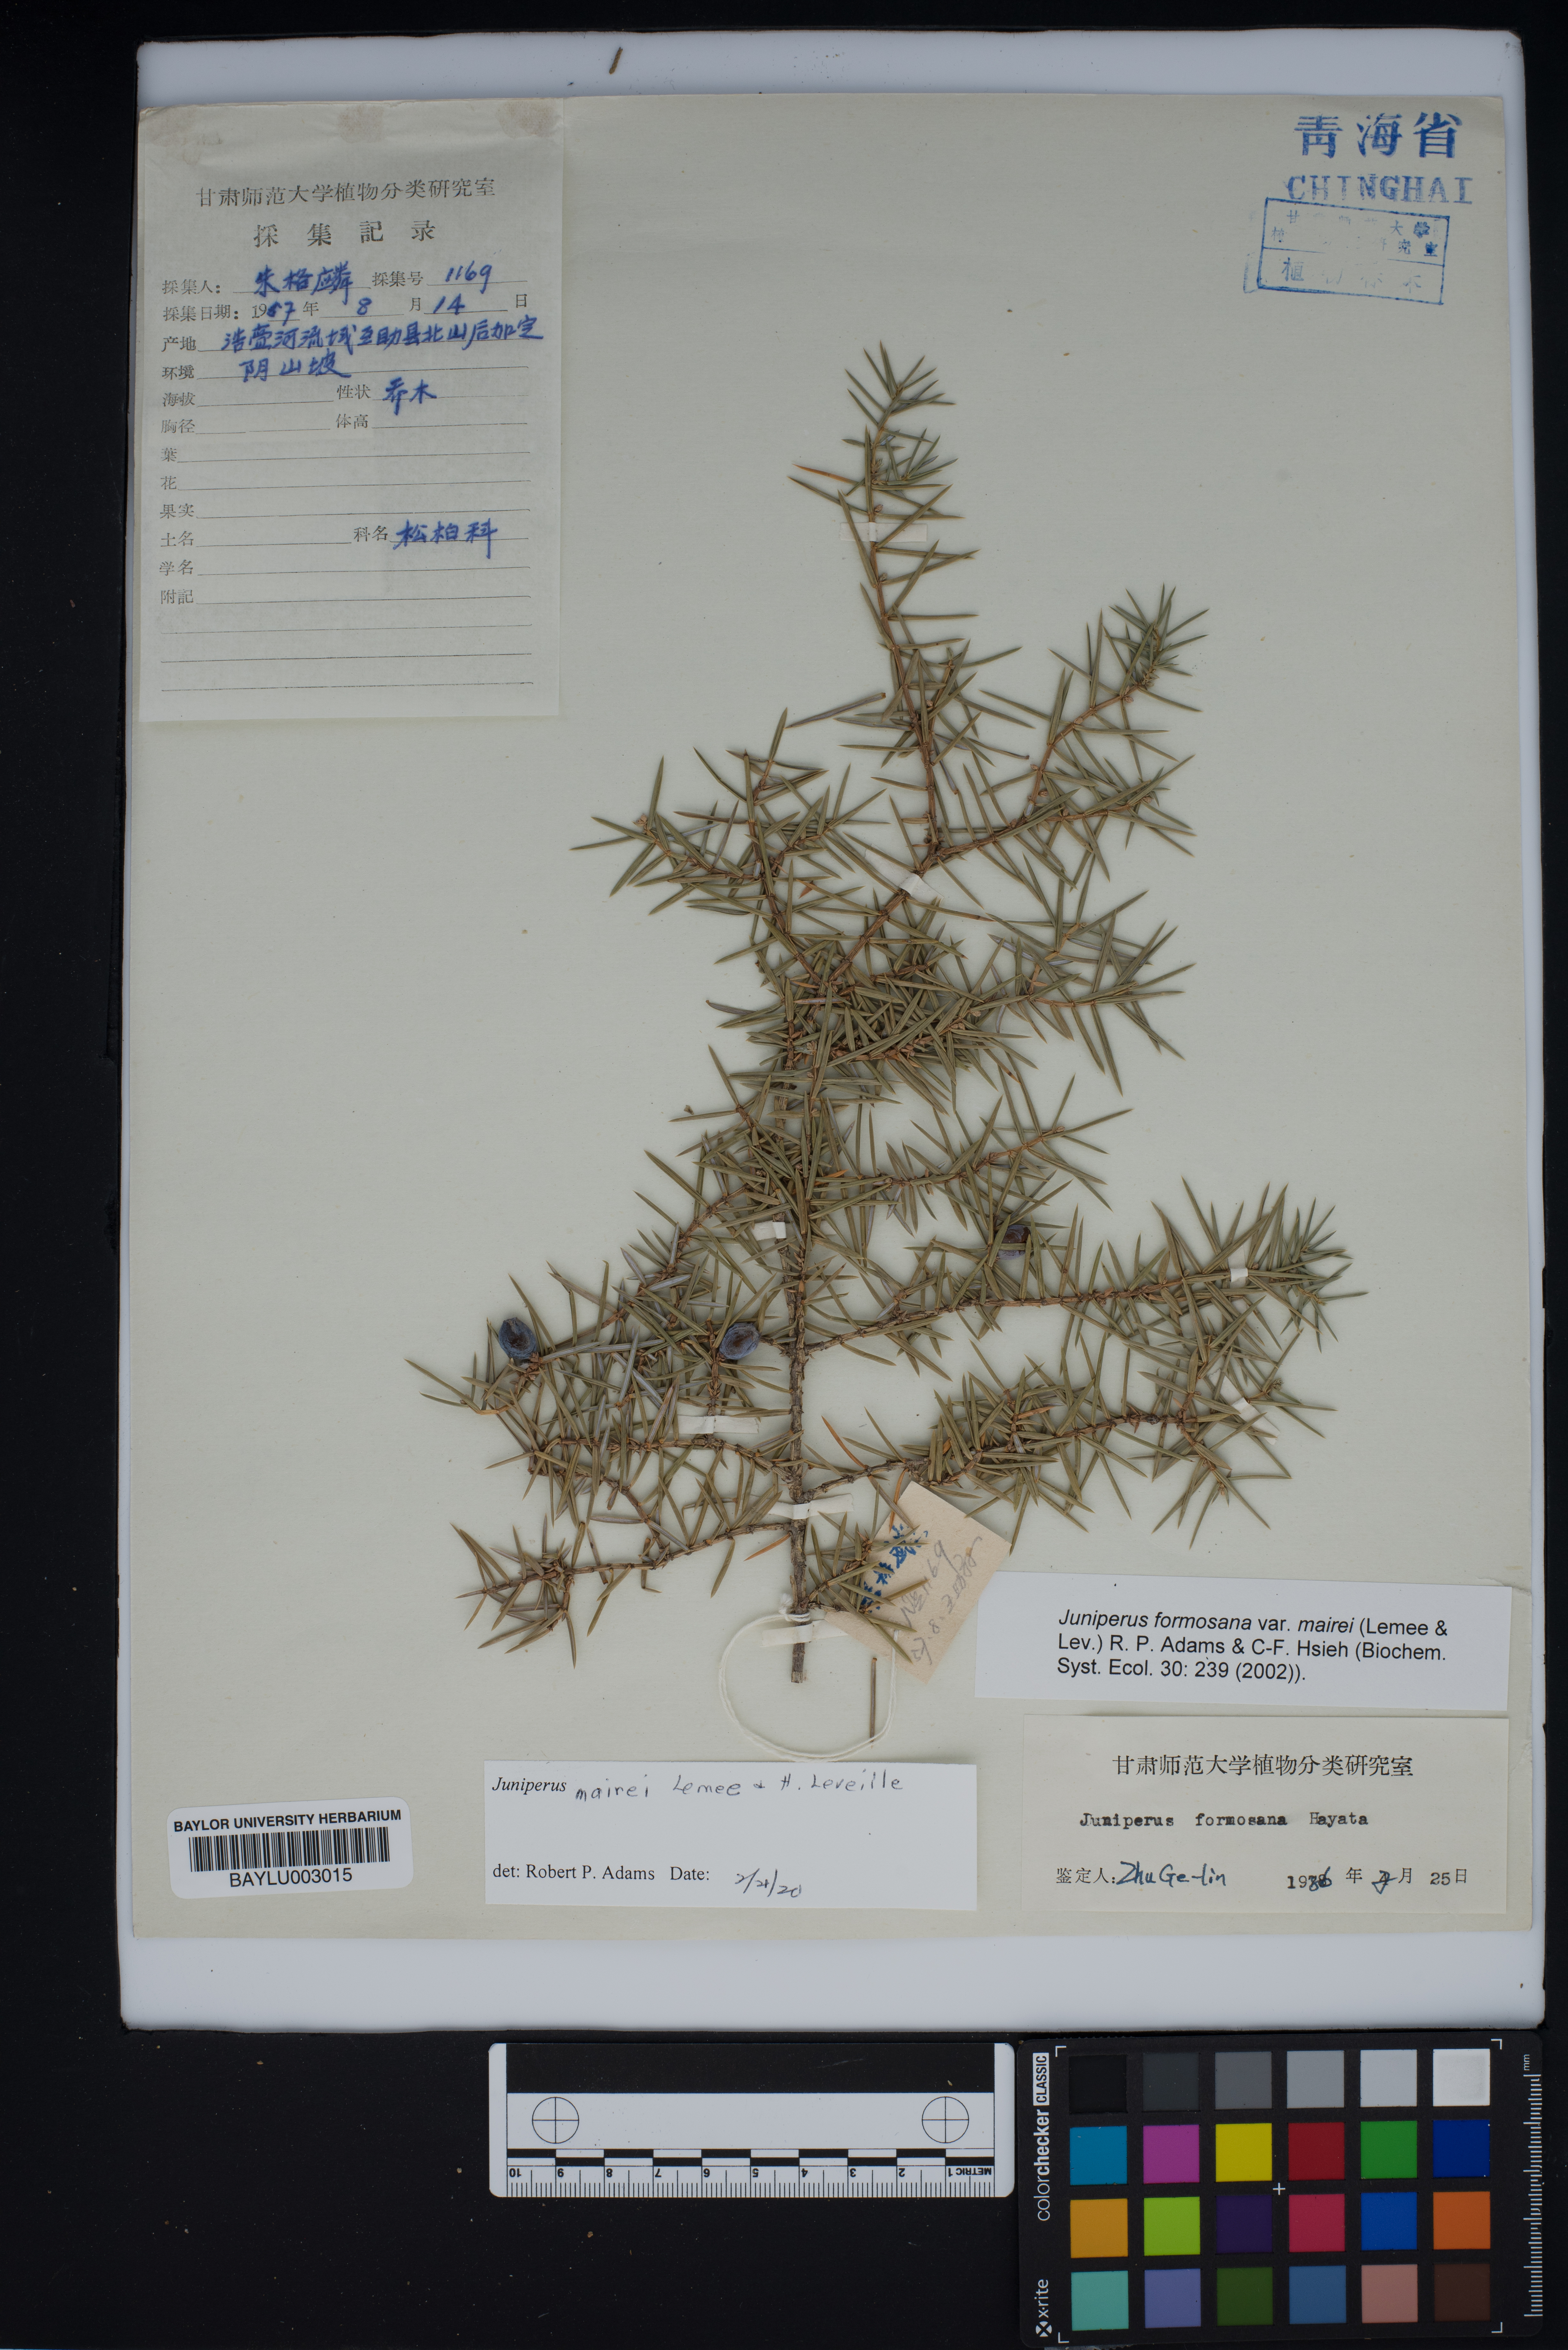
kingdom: Plantae
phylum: Tracheophyta
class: Pinopsida
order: Pinales
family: Cupressaceae
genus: Juniperus
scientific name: Juniperus formosana
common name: Formosan juniper
